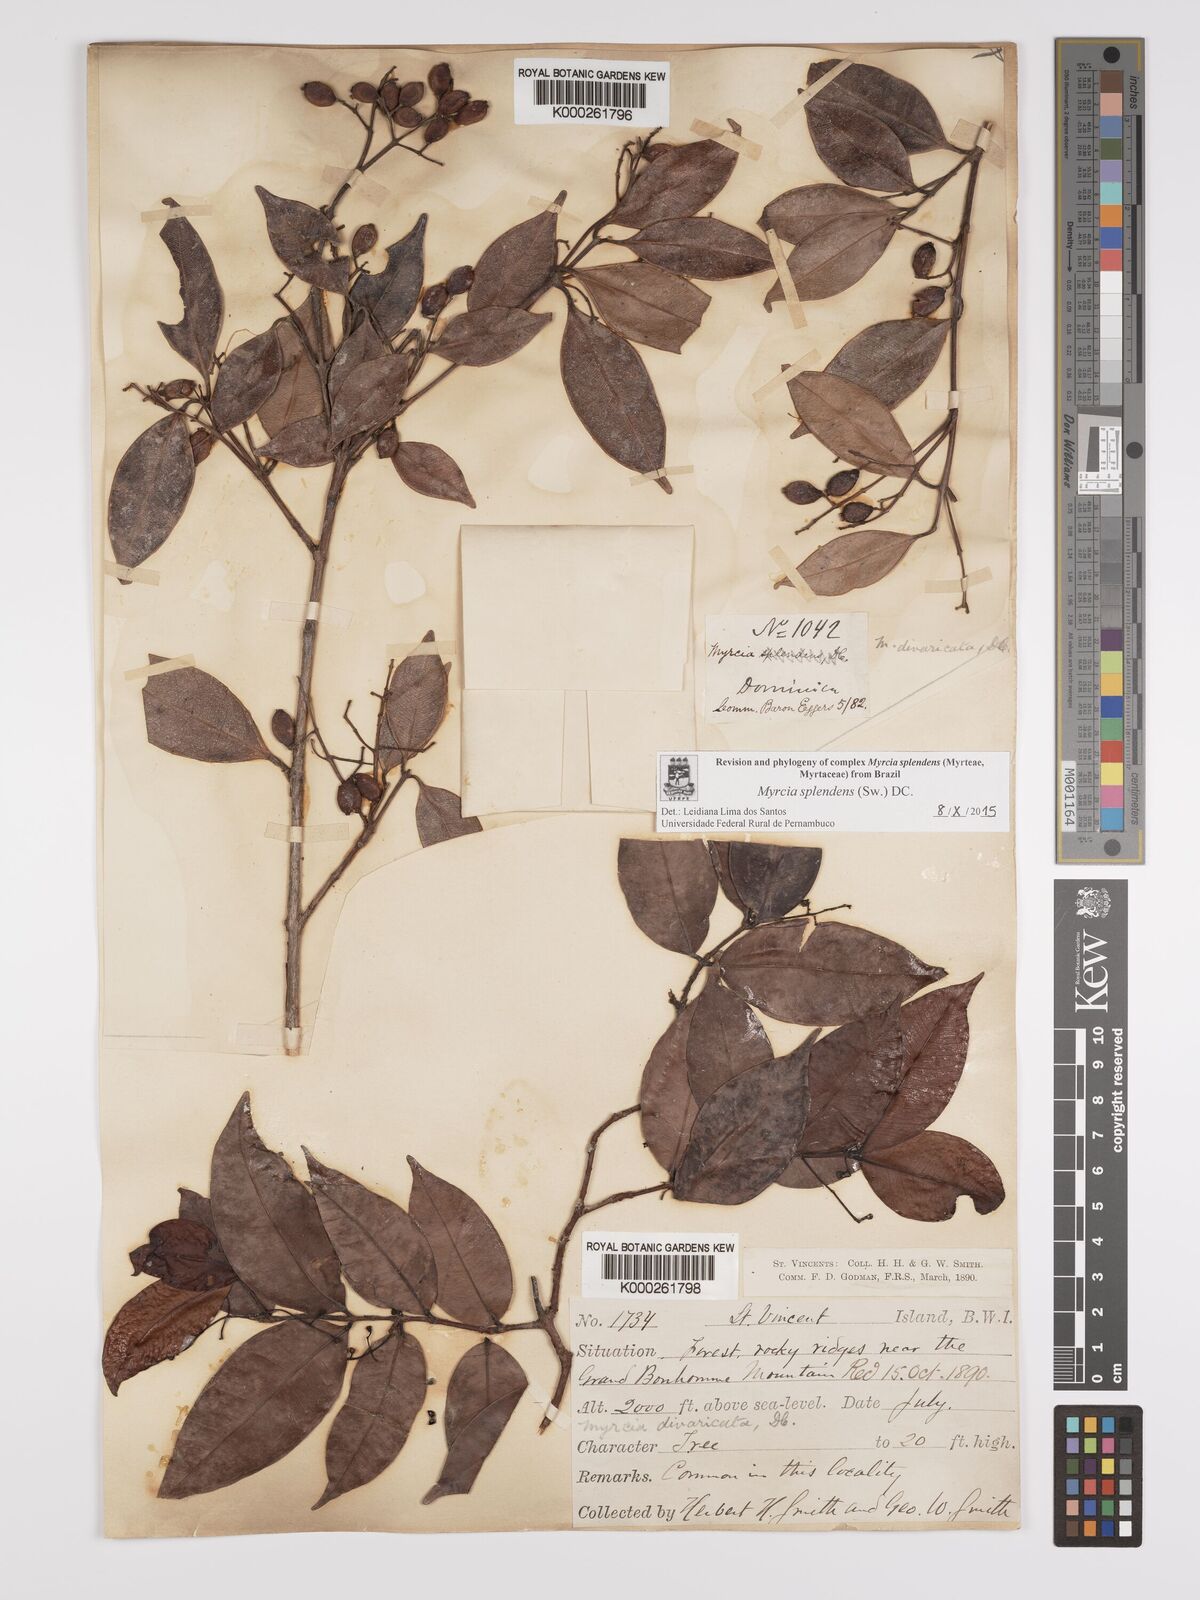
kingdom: Plantae
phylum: Tracheophyta
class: Magnoliopsida
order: Myrtales
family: Myrtaceae
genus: Myrcia
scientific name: Myrcia splendens
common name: Surinam cherry
